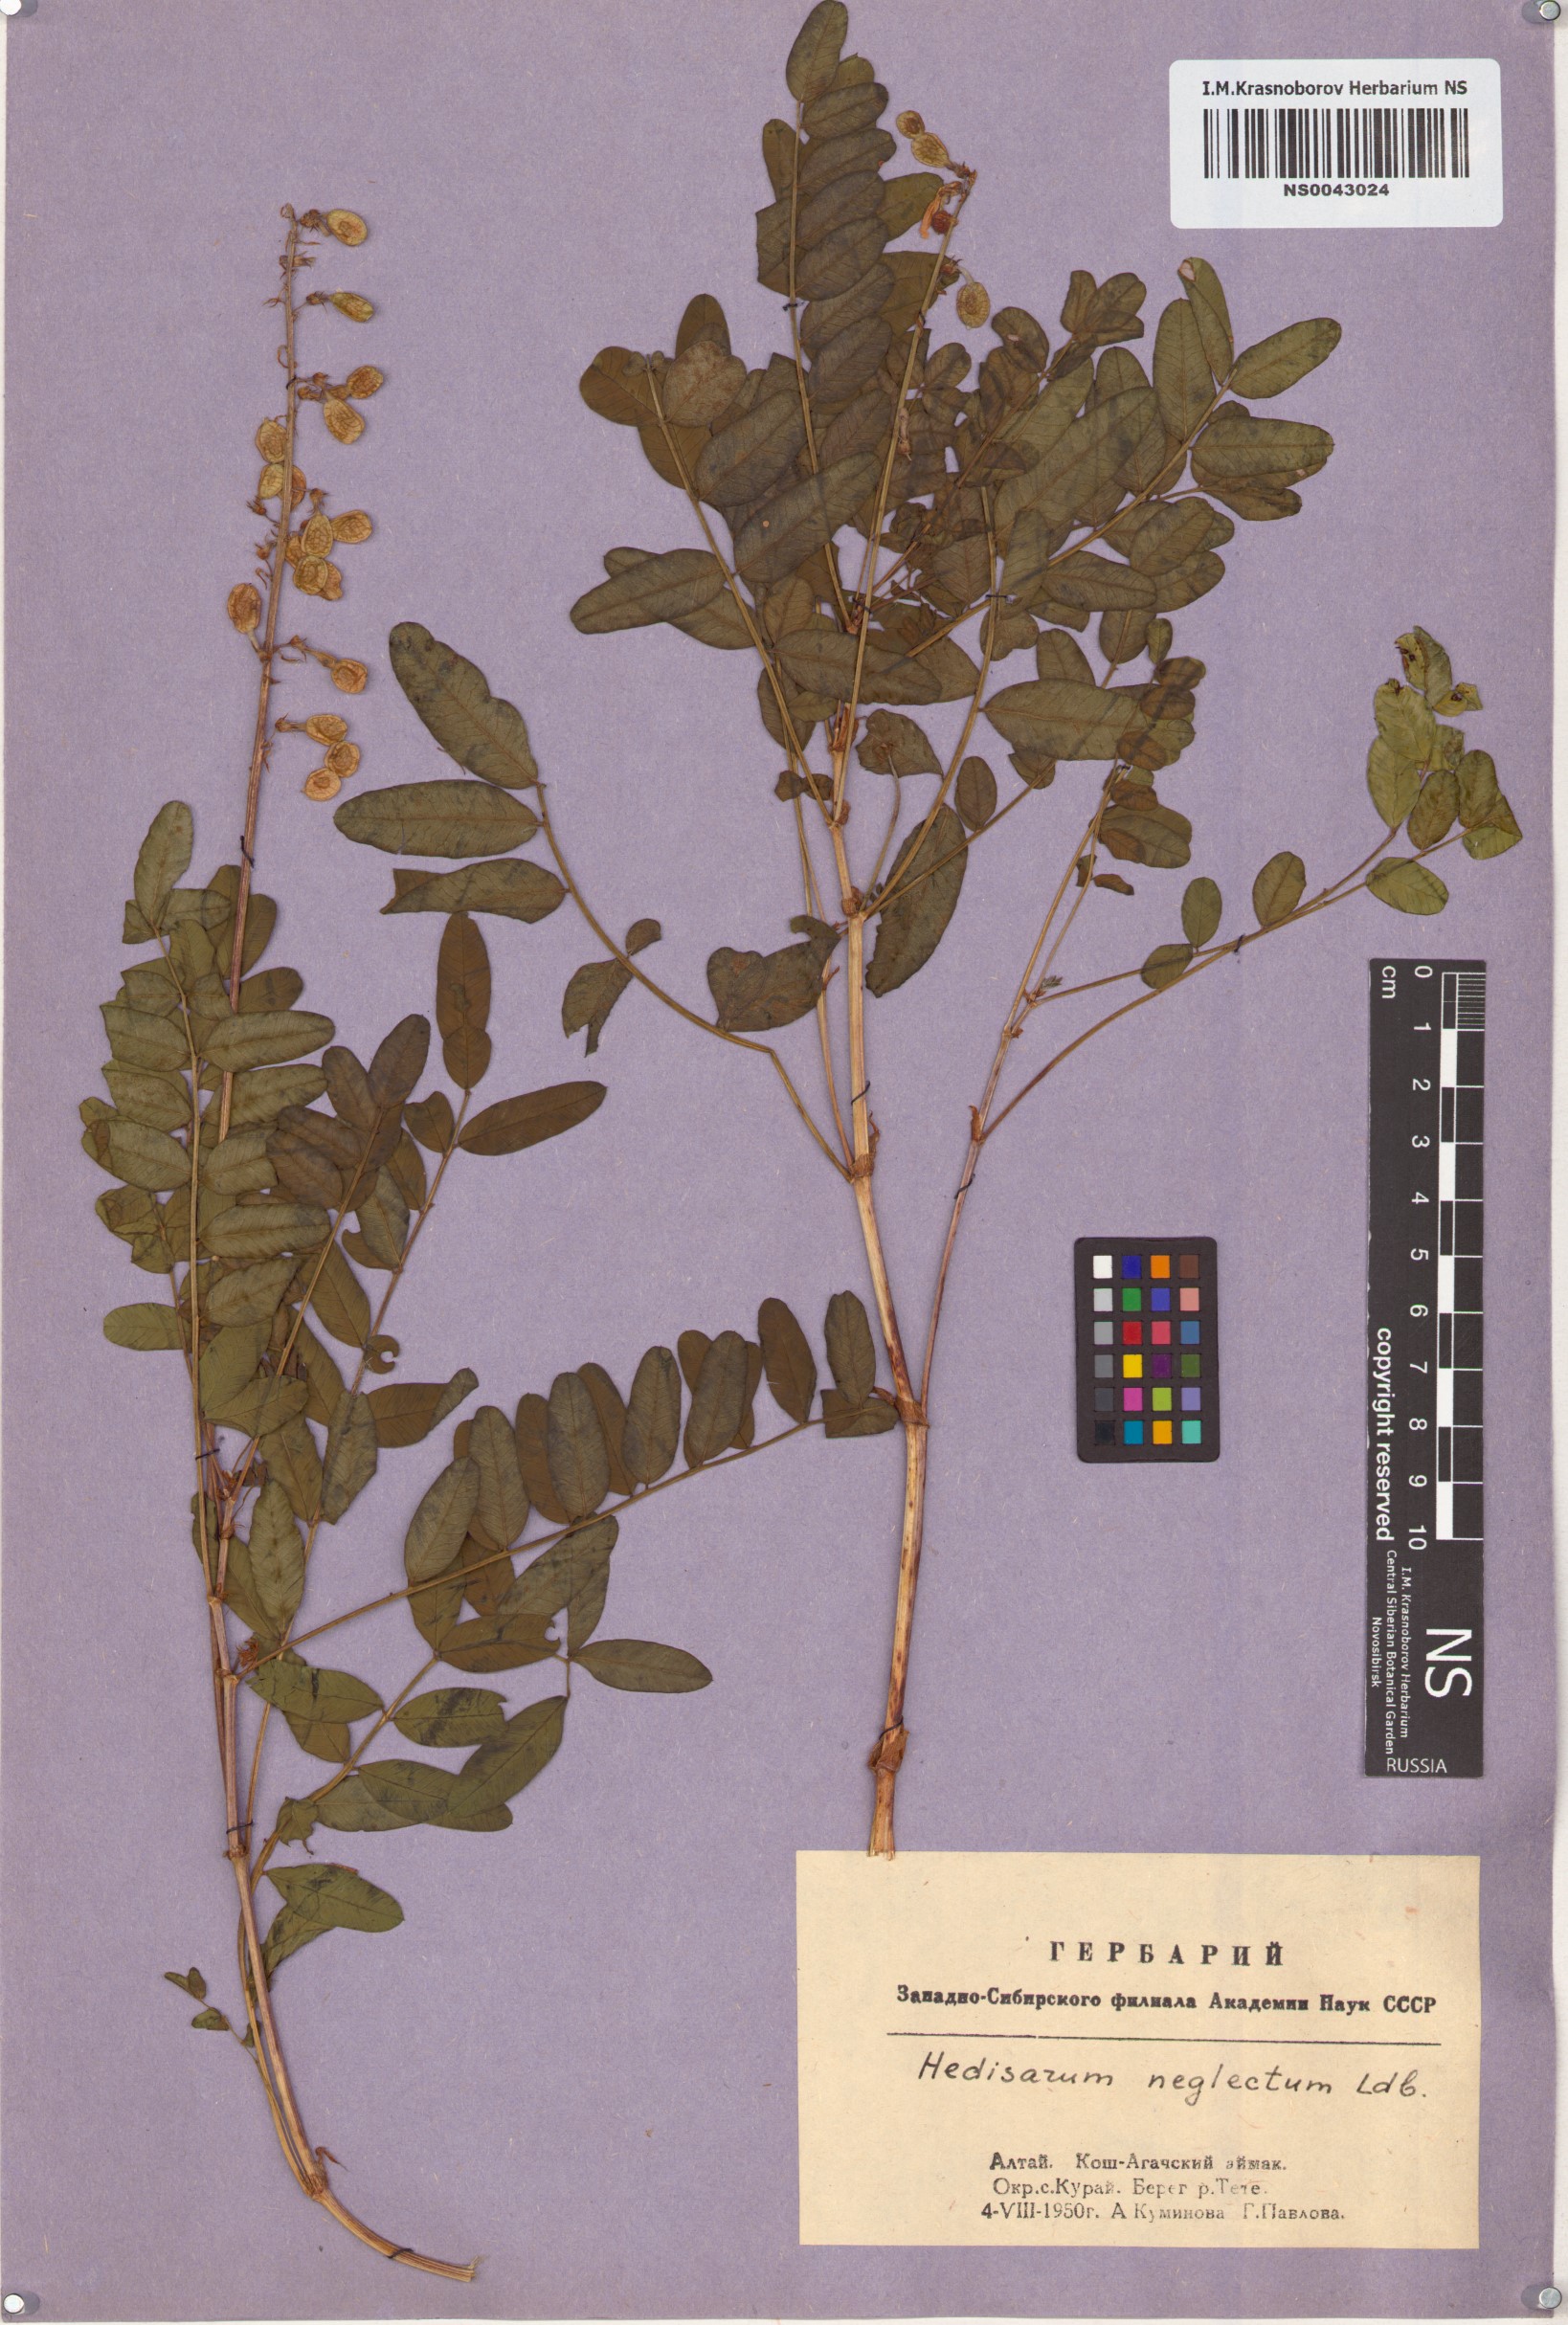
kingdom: Plantae
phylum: Tracheophyta
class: Magnoliopsida
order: Fabales
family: Fabaceae
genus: Hedysarum
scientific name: Hedysarum neglectum
